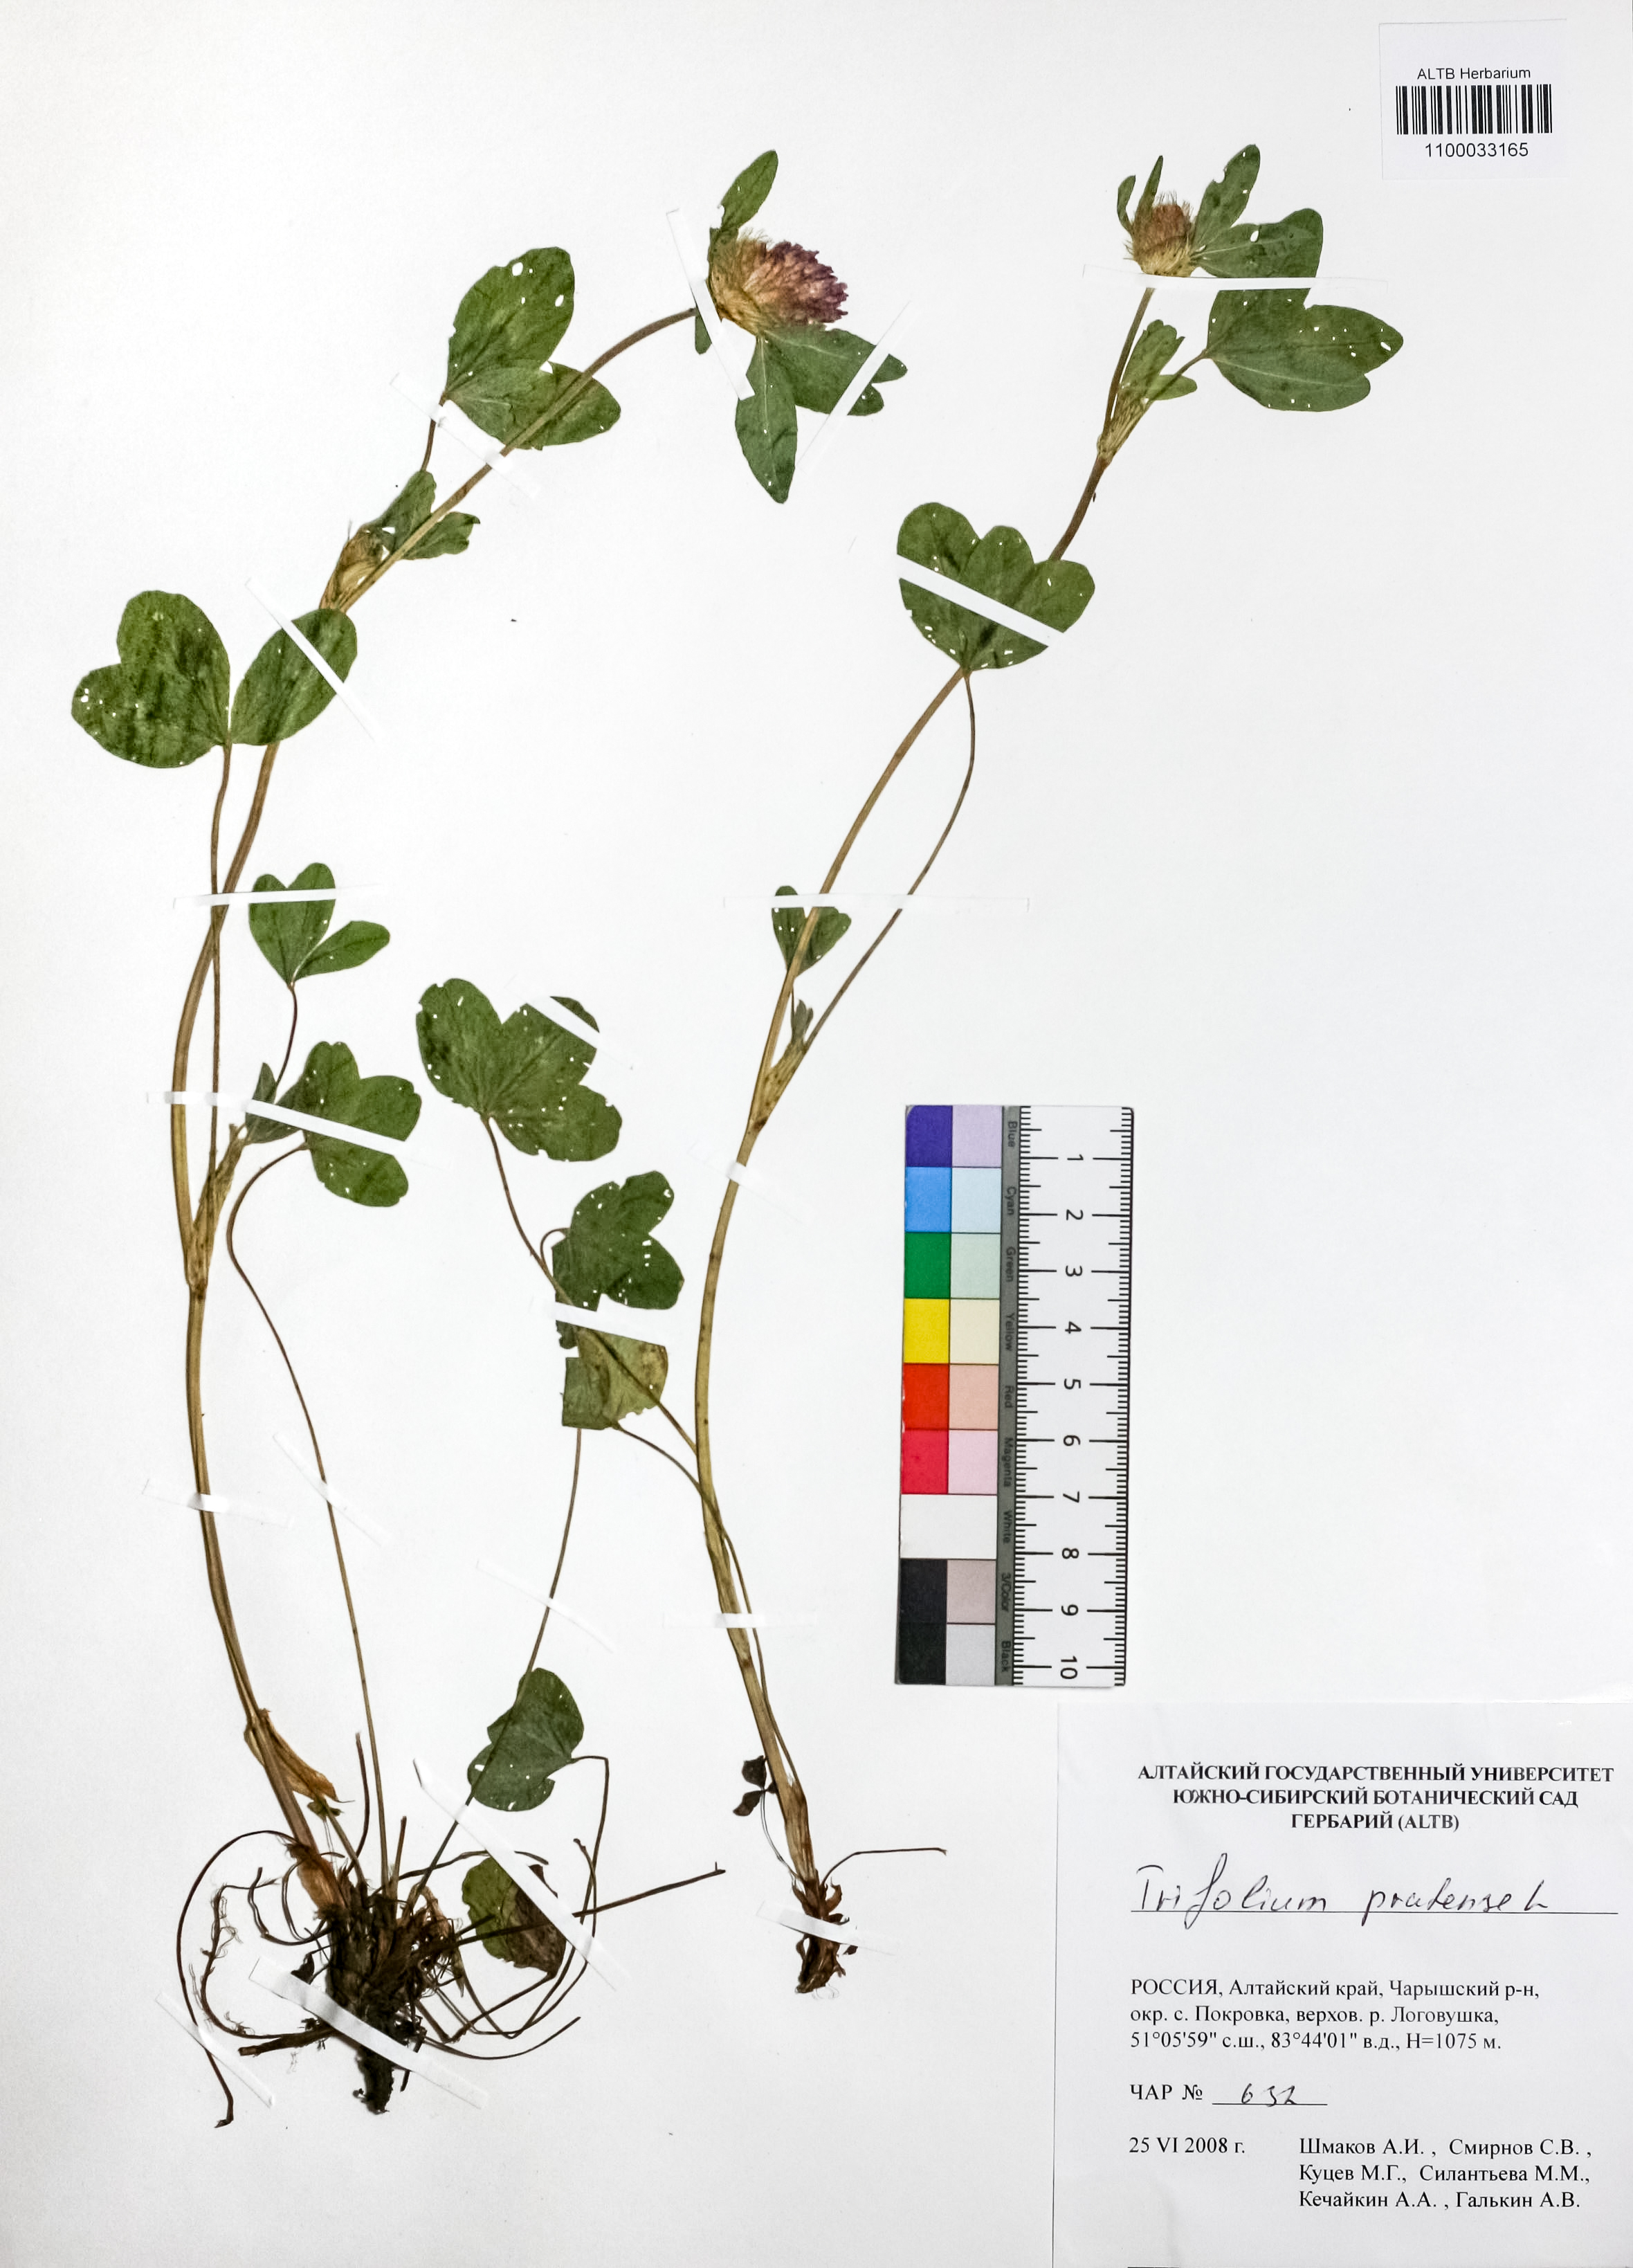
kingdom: Plantae
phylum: Tracheophyta
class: Magnoliopsida
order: Fabales
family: Fabaceae
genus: Trifolium
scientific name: Trifolium pratense
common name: Red clover
